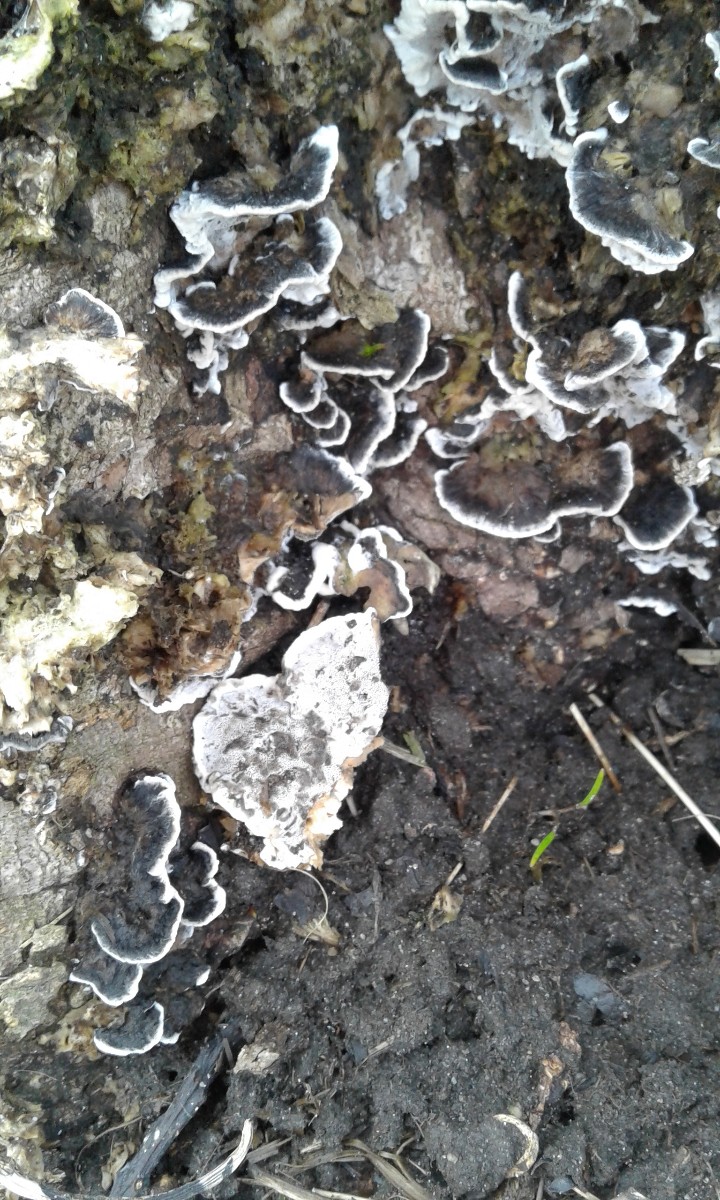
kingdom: Fungi
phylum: Basidiomycota
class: Agaricomycetes
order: Polyporales
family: Phanerochaetaceae
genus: Bjerkandera
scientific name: Bjerkandera adusta
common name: sveden sodporesvamp
